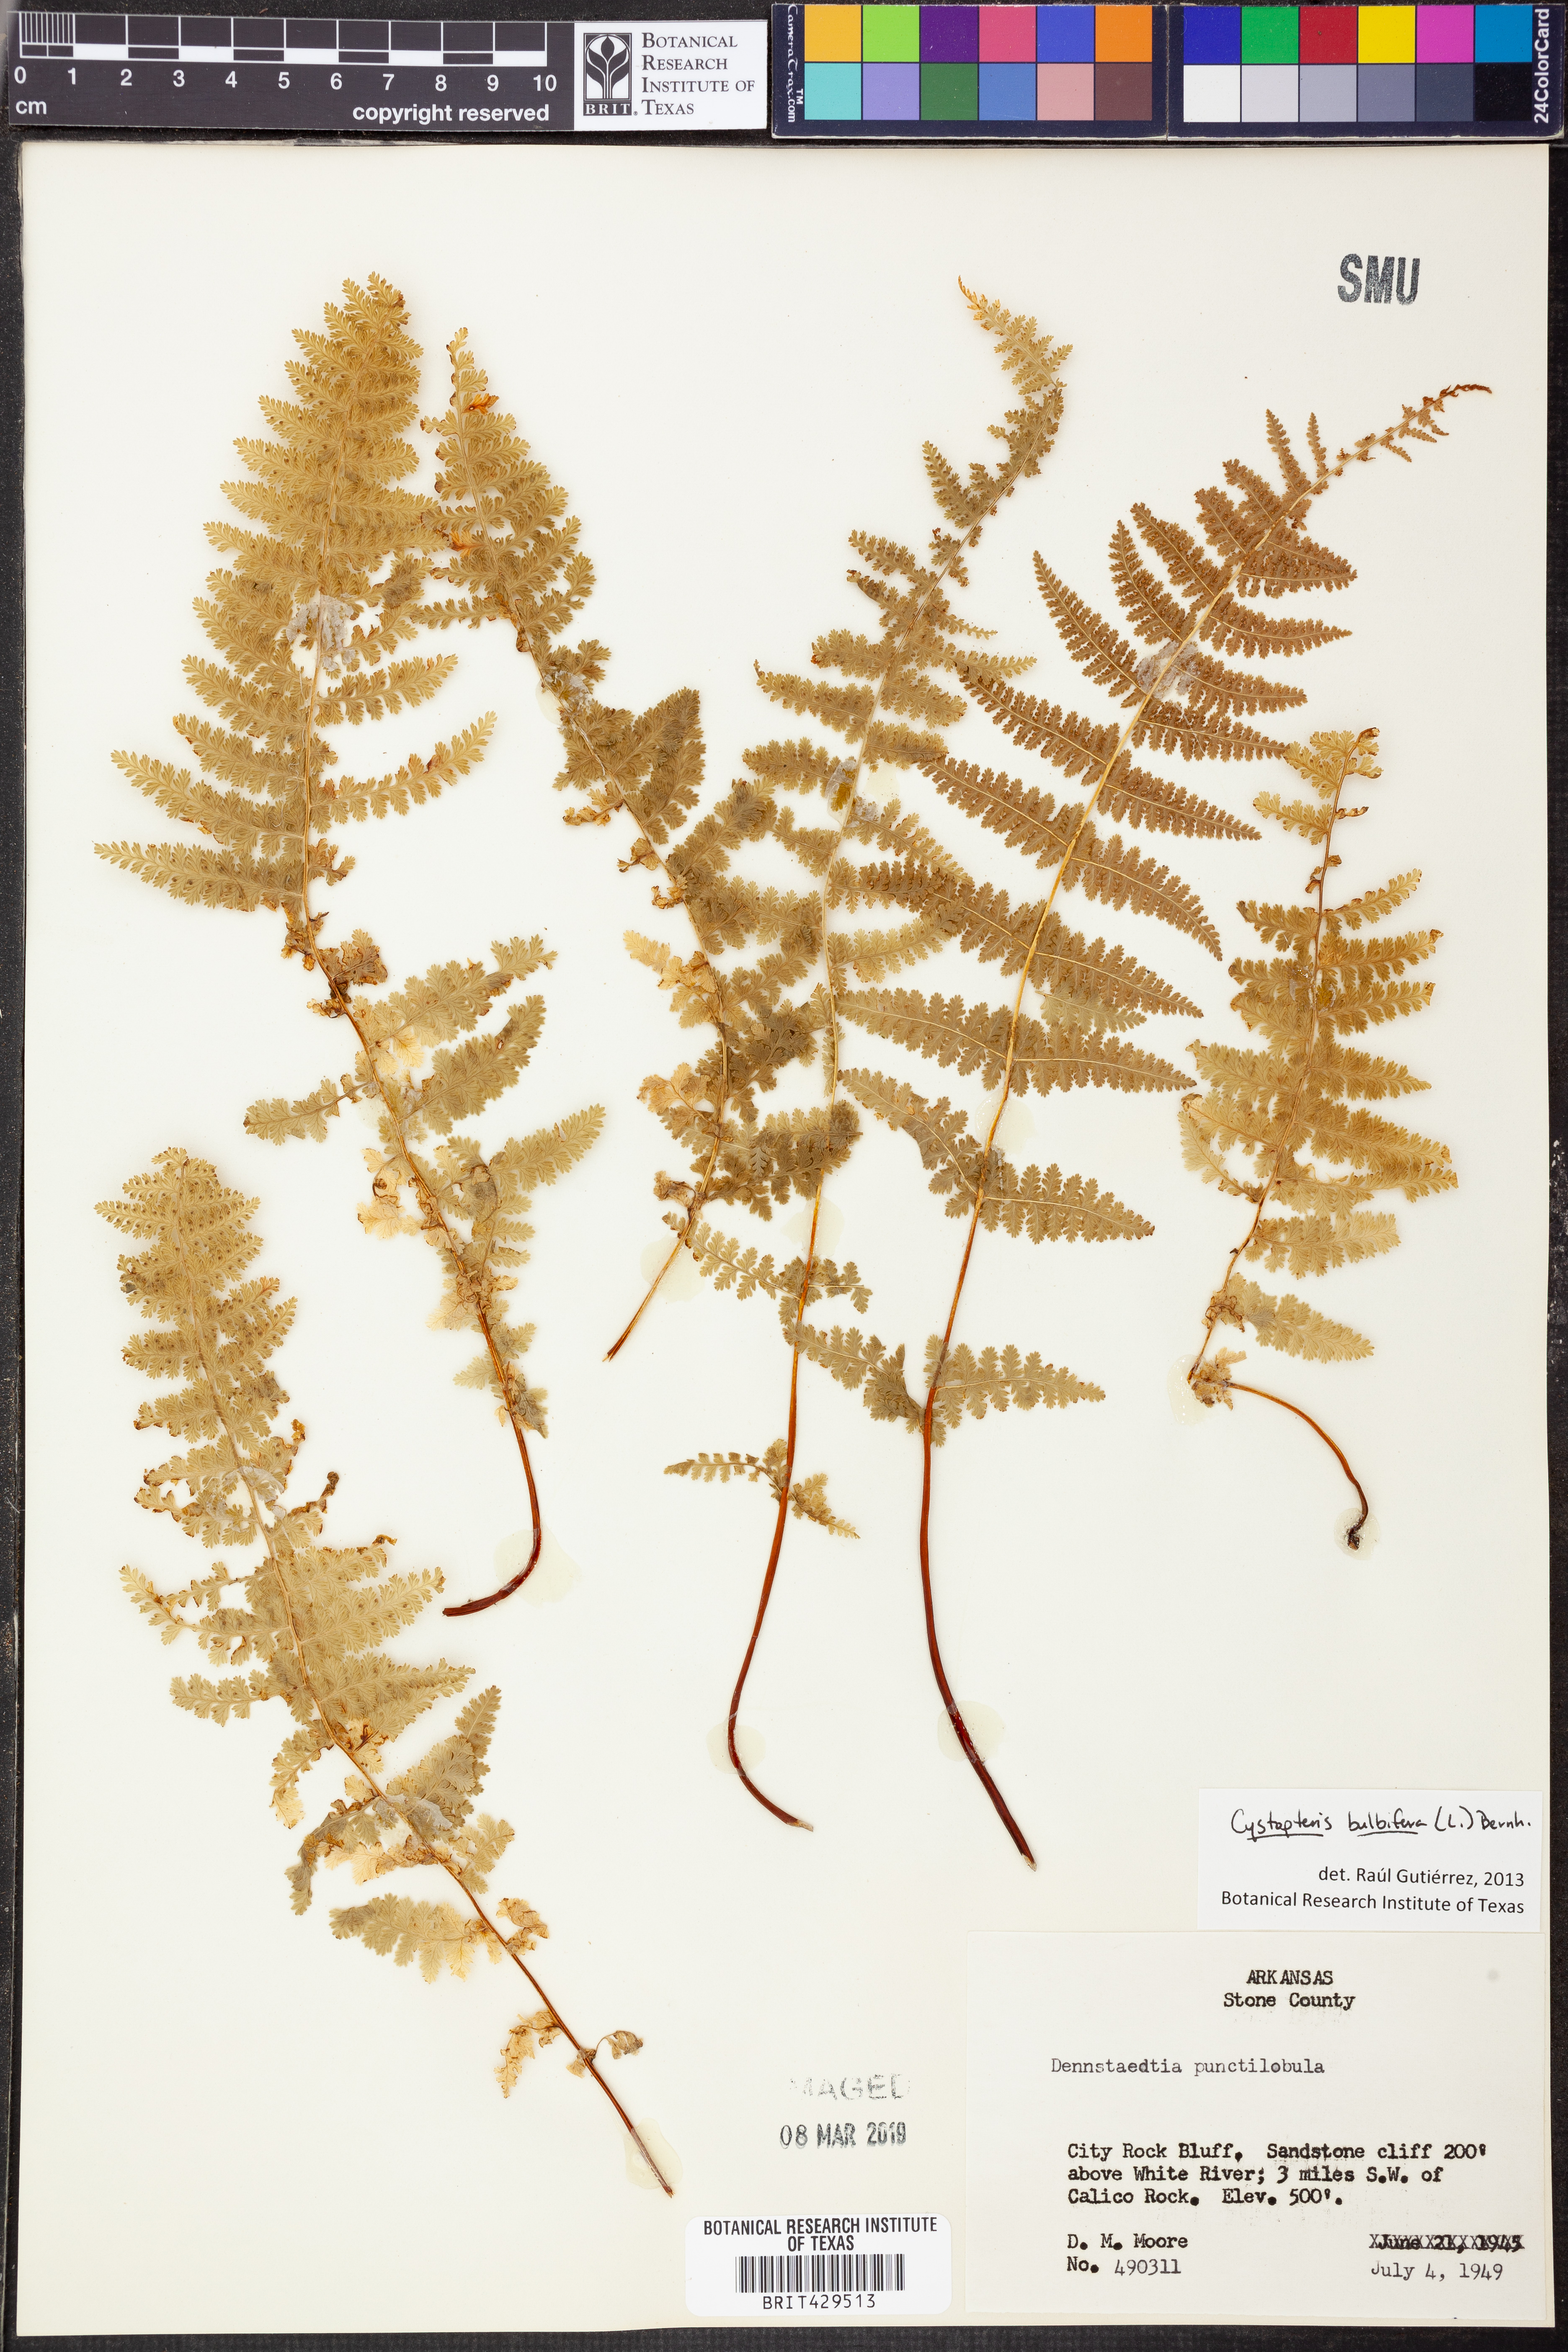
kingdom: Plantae
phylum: Tracheophyta
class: Polypodiopsida
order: Polypodiales
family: Cystopteridaceae
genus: Cystopteris
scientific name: Cystopteris bulbifera
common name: Bulblet bladder fern
